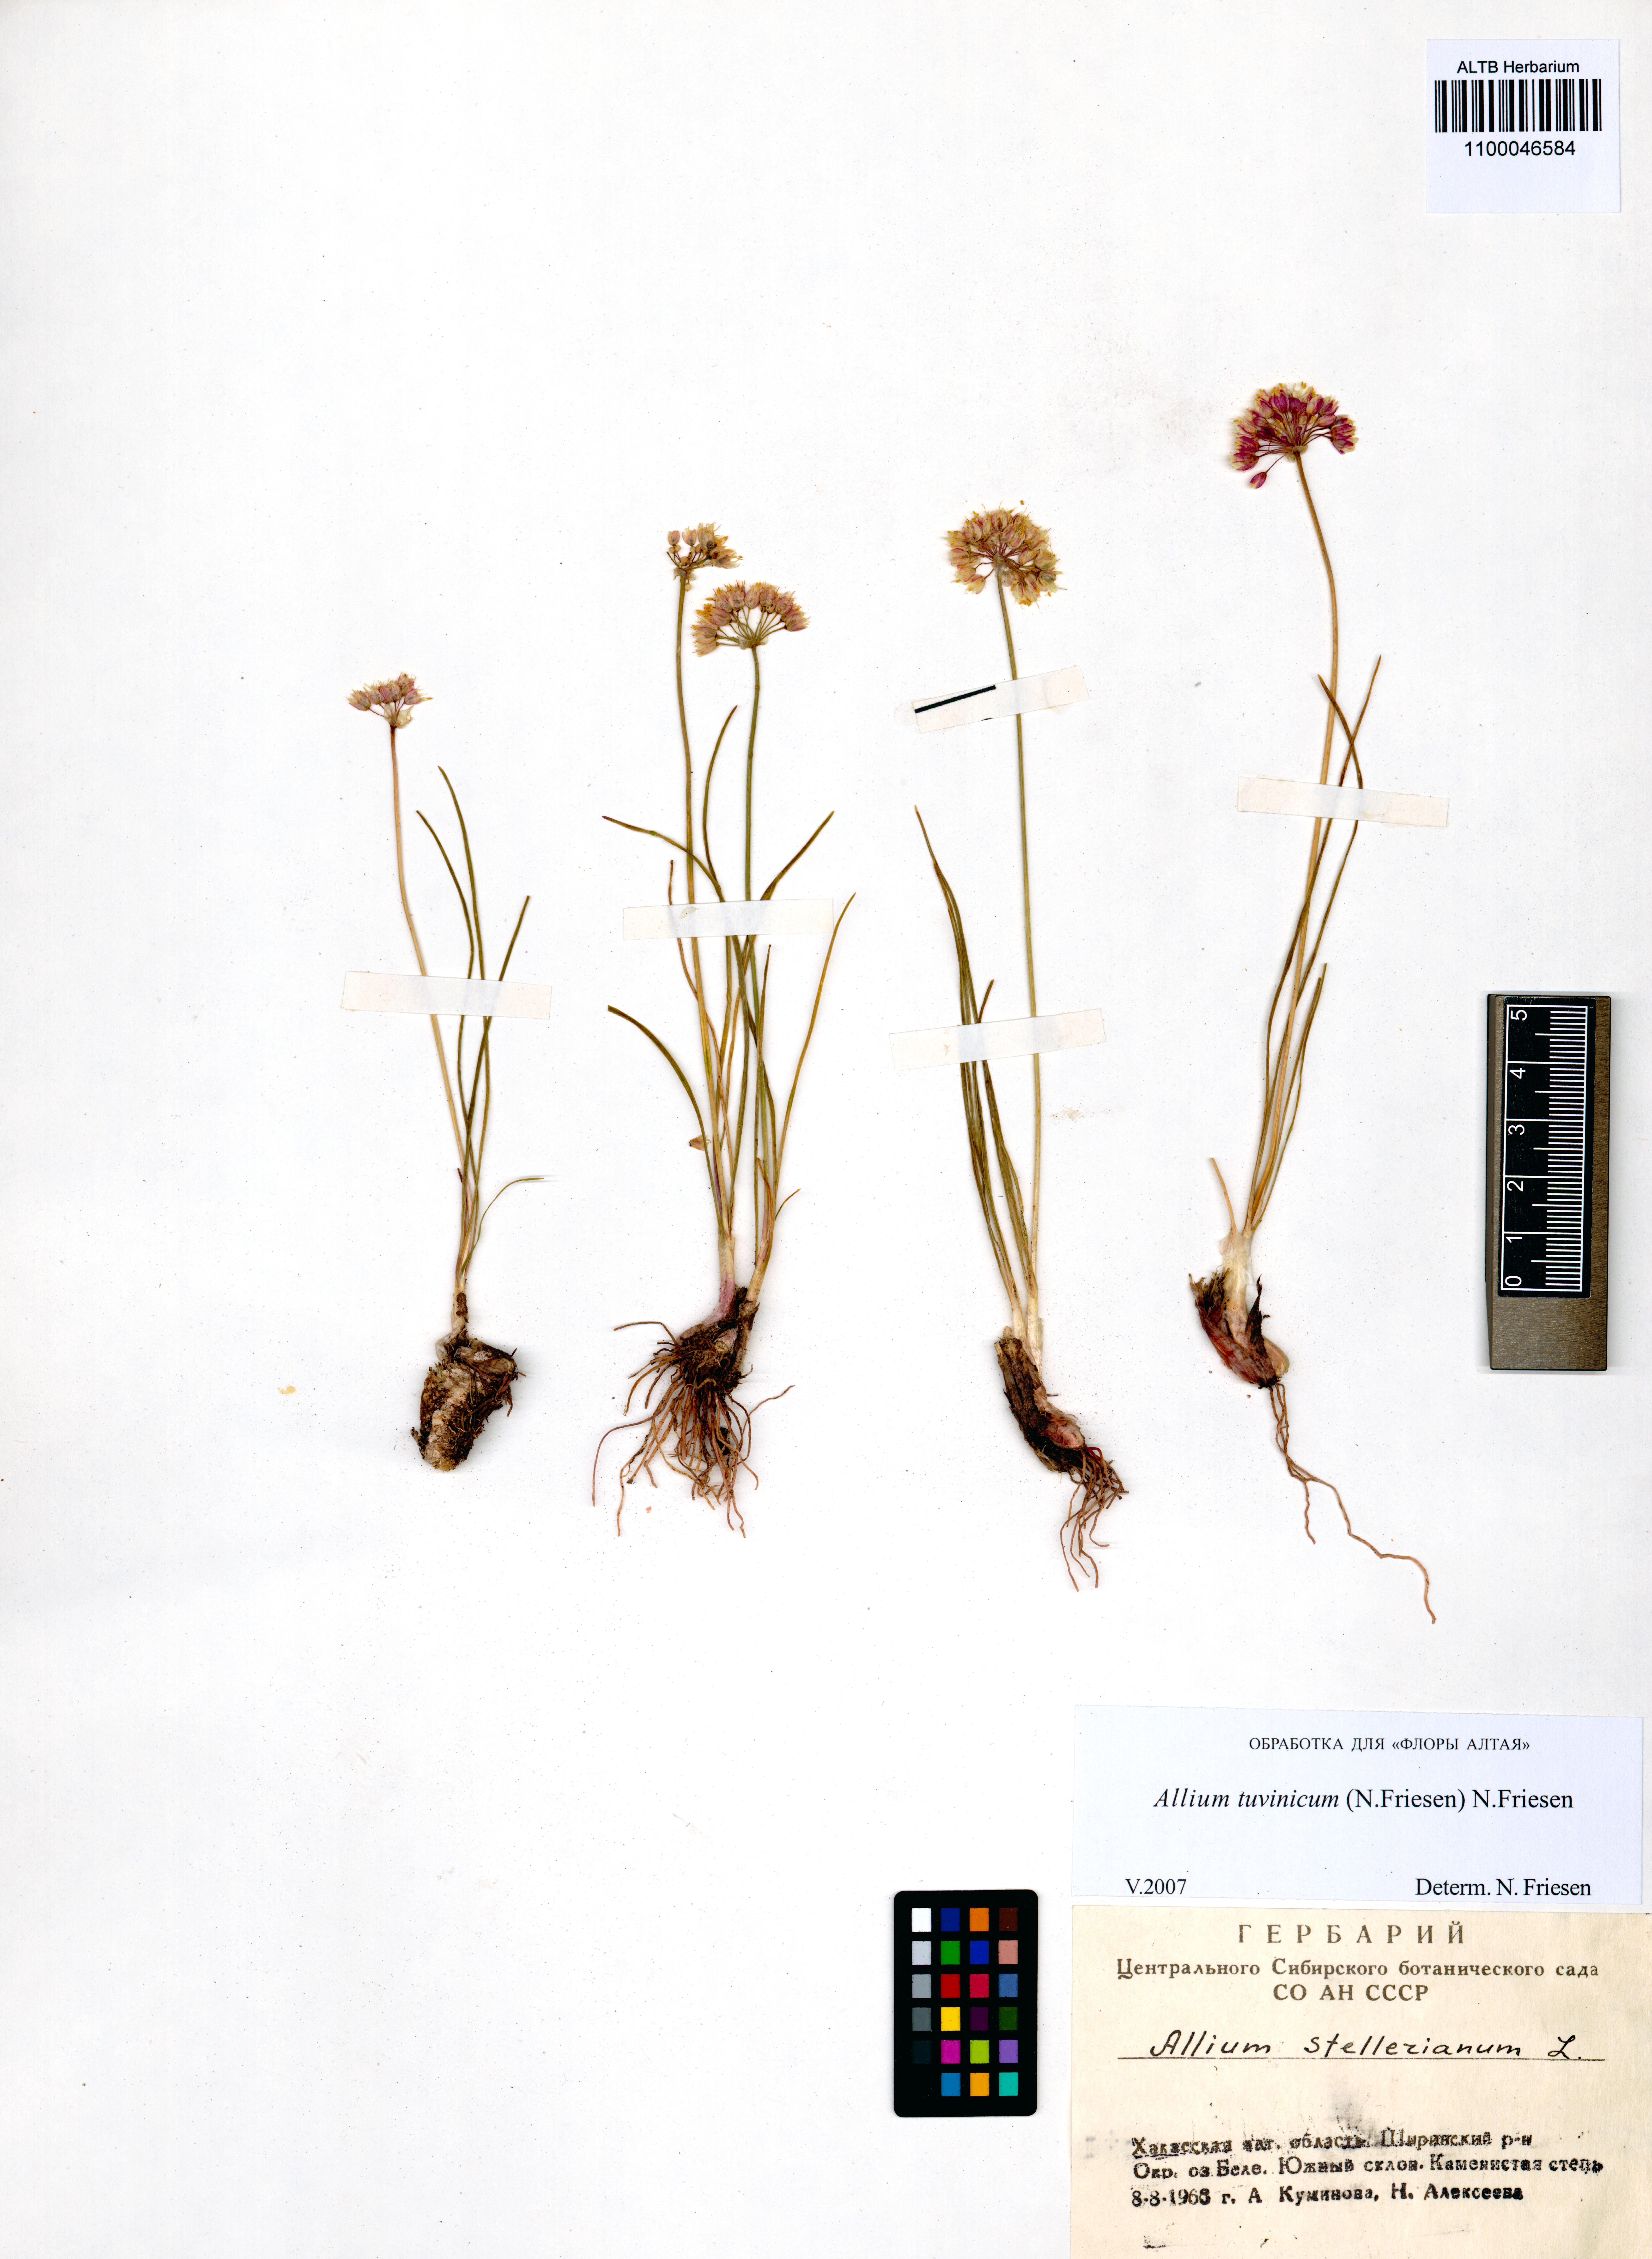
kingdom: Plantae
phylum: Tracheophyta
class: Liliopsida
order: Asparagales
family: Amaryllidaceae
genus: Allium
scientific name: Allium tuvinicum
